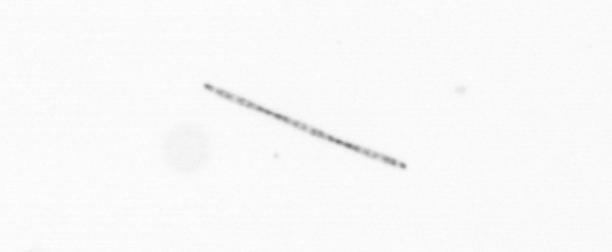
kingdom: Chromista
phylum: Ochrophyta
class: Bacillariophyceae
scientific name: Bacillariophyceae
